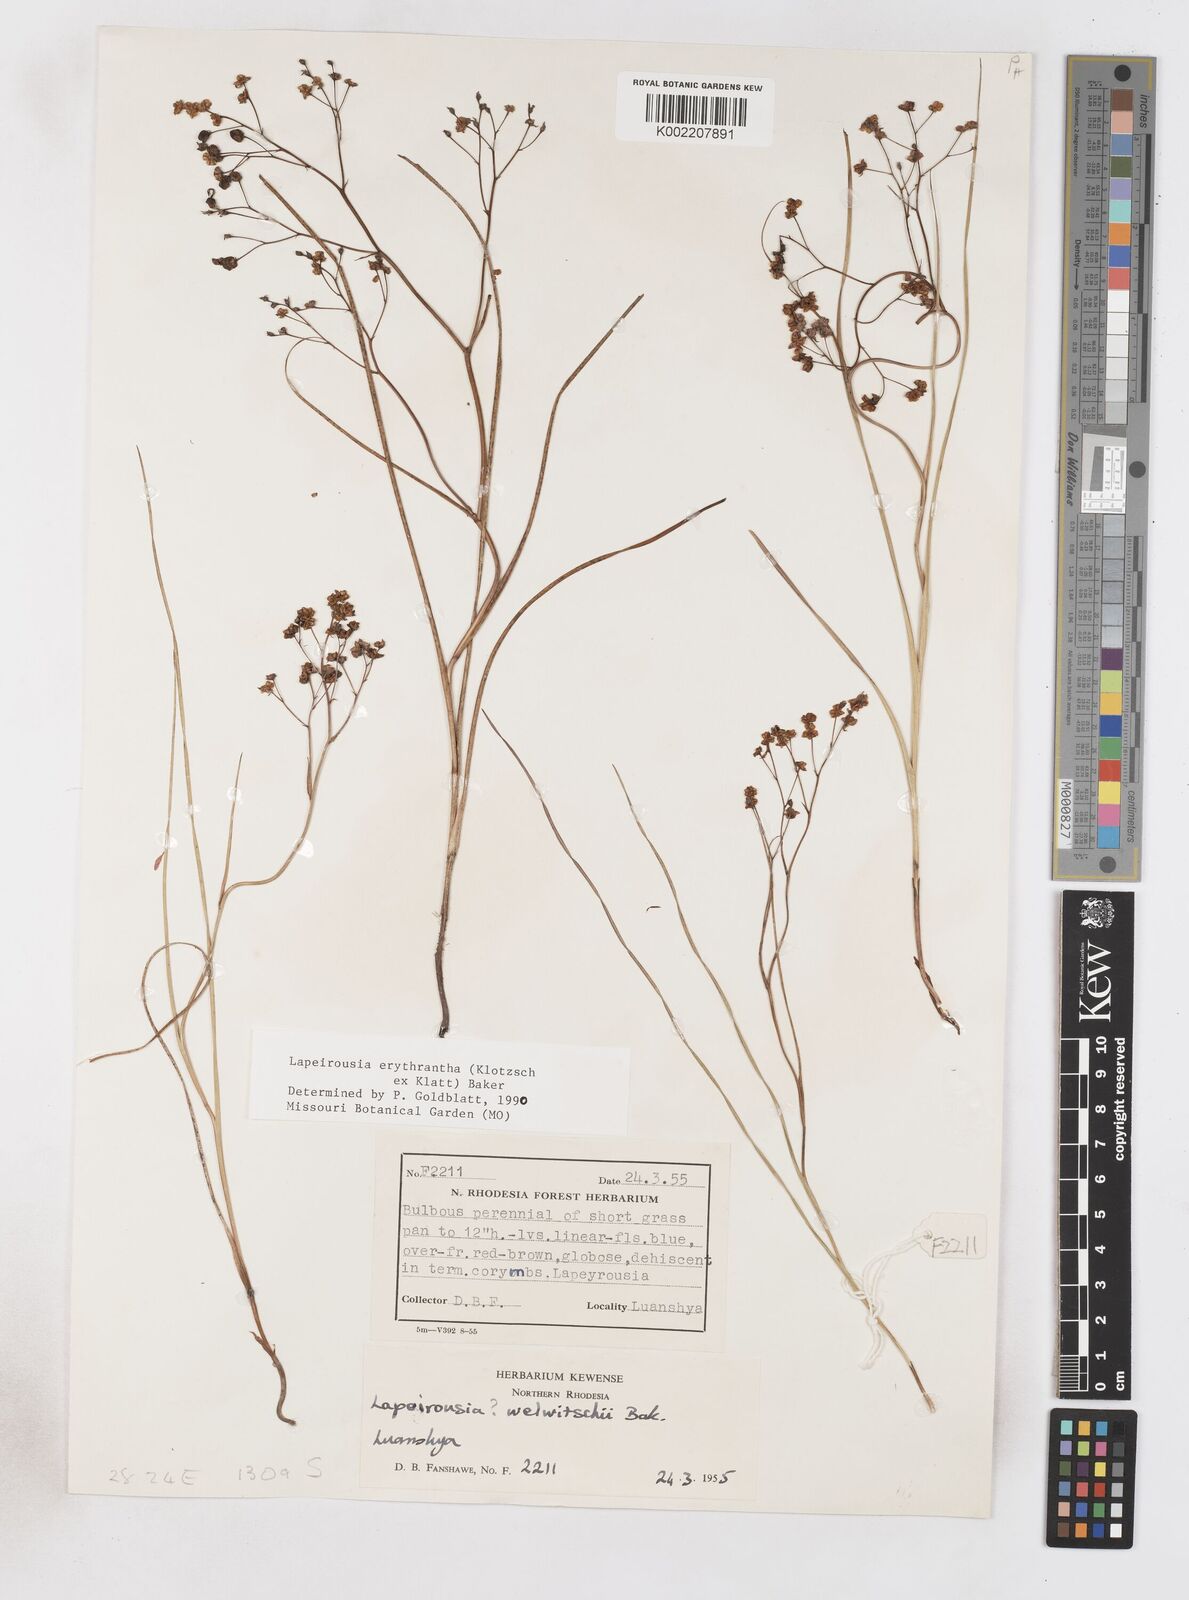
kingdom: Plantae
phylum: Tracheophyta
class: Liliopsida
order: Asparagales
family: Iridaceae
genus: Afrosolen
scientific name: Afrosolen erythranthus
